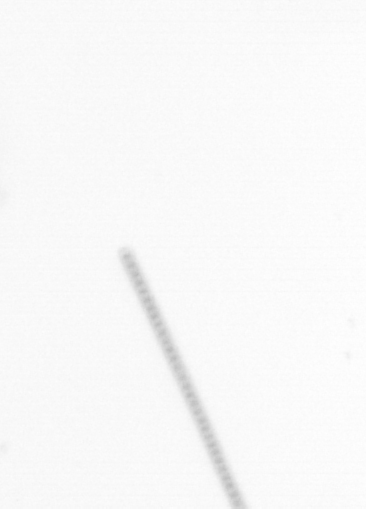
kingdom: Chromista
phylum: Ochrophyta
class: Bacillariophyceae
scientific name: Bacillariophyceae
